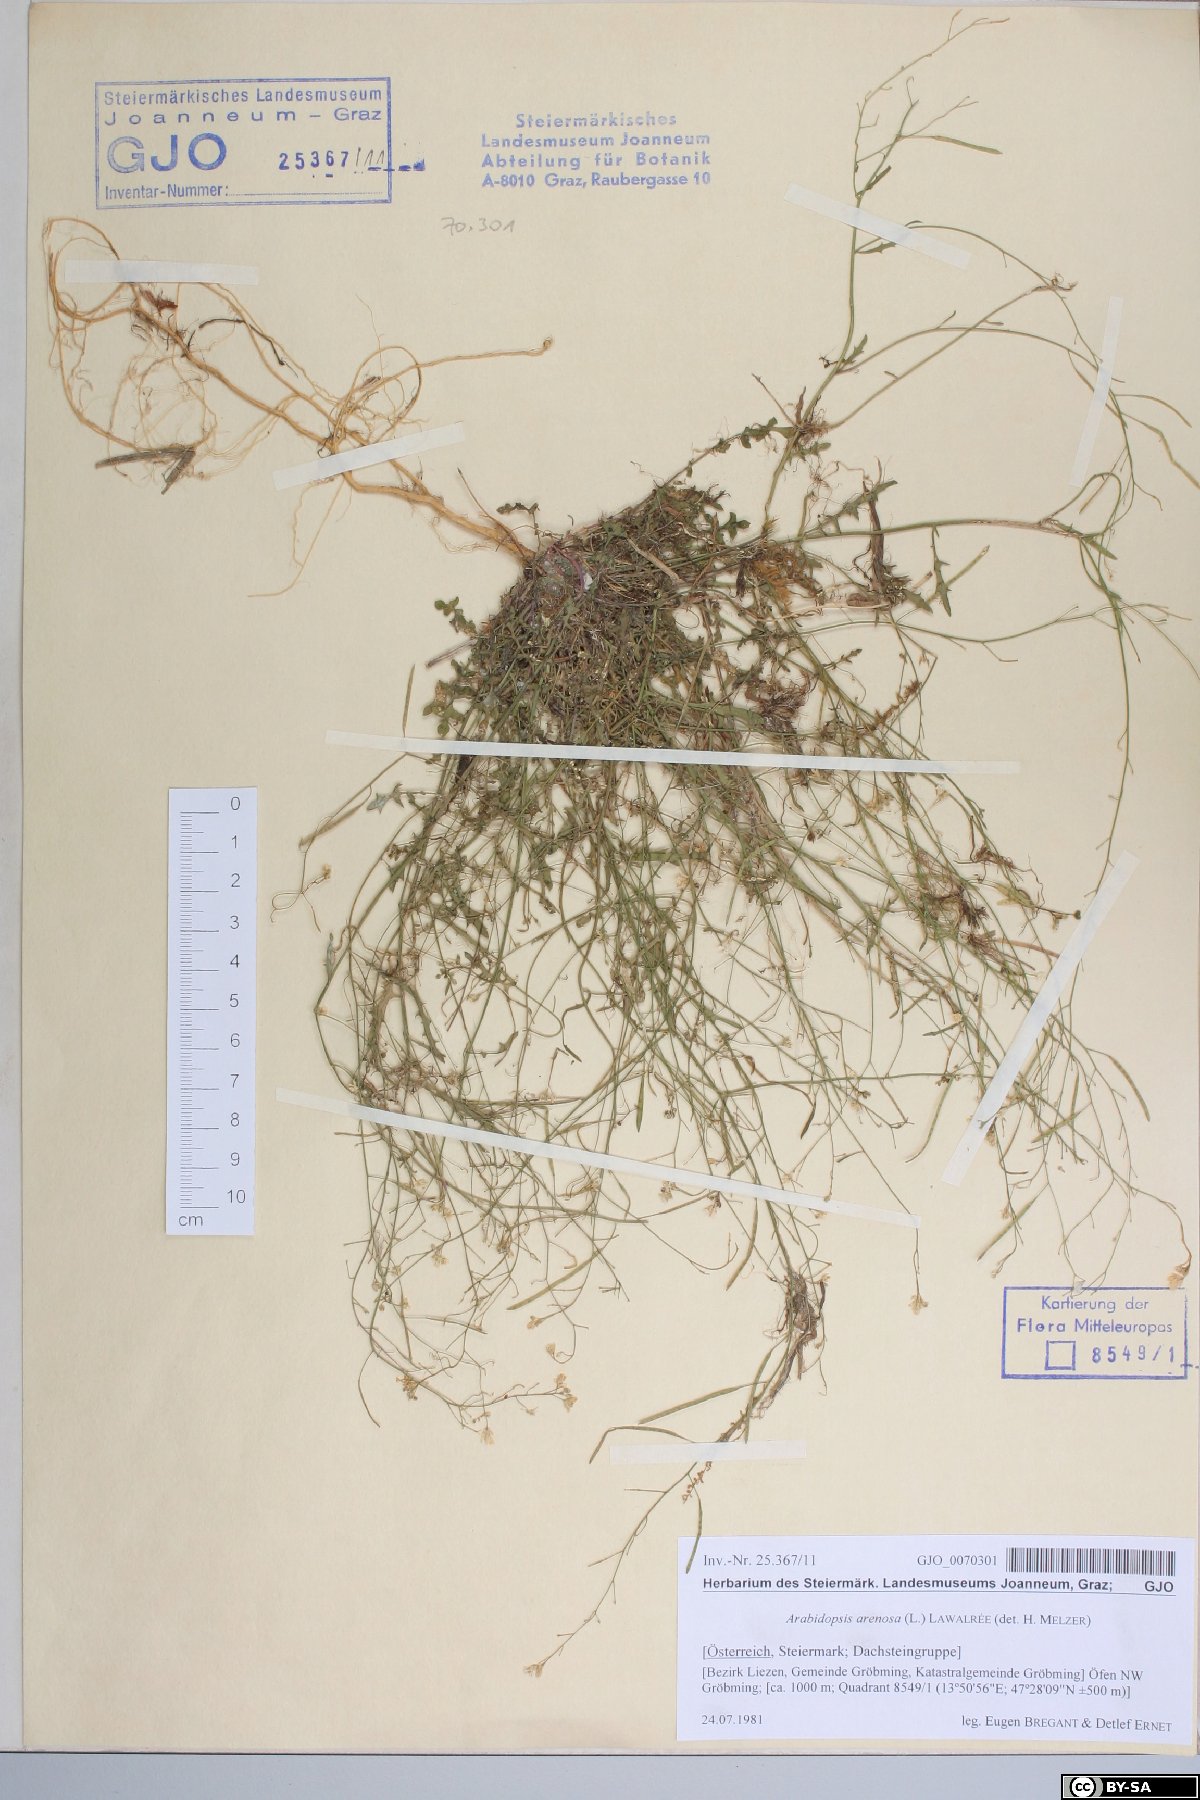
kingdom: Plantae
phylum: Tracheophyta
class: Magnoliopsida
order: Brassicales
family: Brassicaceae
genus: Arabidopsis
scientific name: Arabidopsis arenosa
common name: Sand rock-cress
